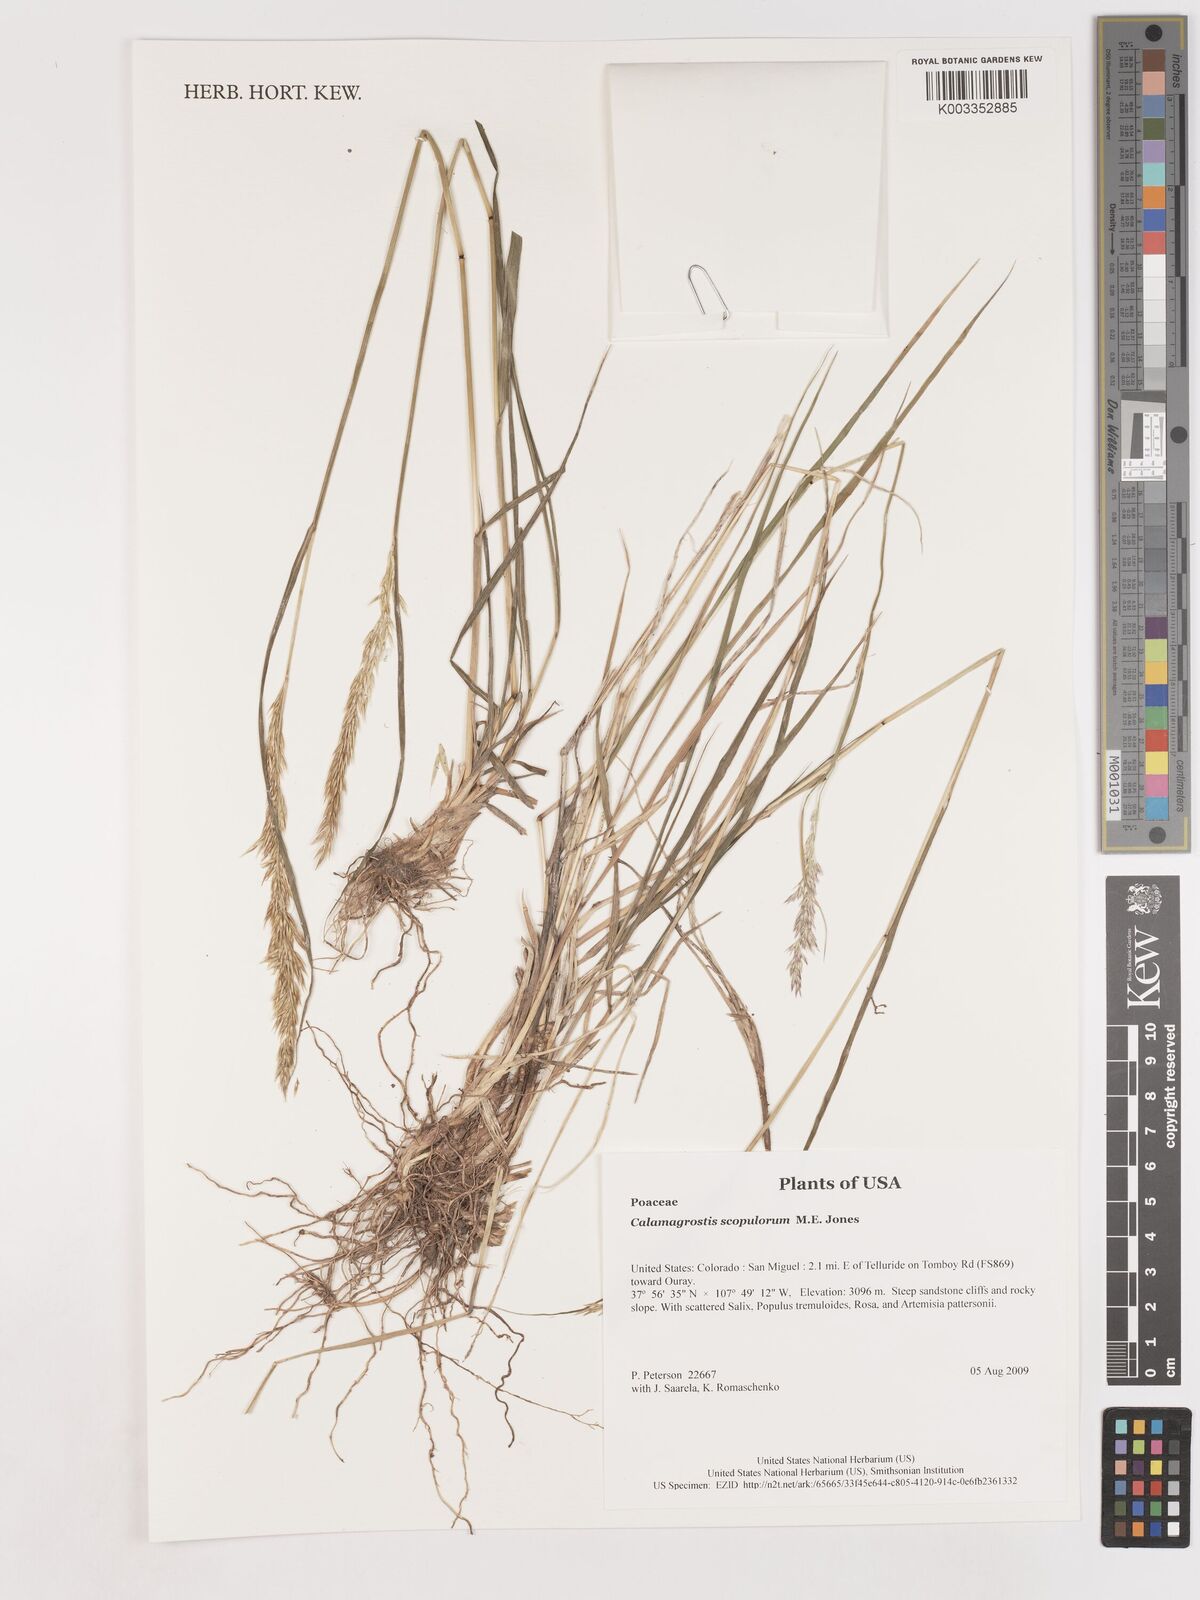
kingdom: Plantae
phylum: Tracheophyta
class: Liliopsida
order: Poales
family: Poaceae
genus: Calamagrostis
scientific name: Calamagrostis scopulorum
